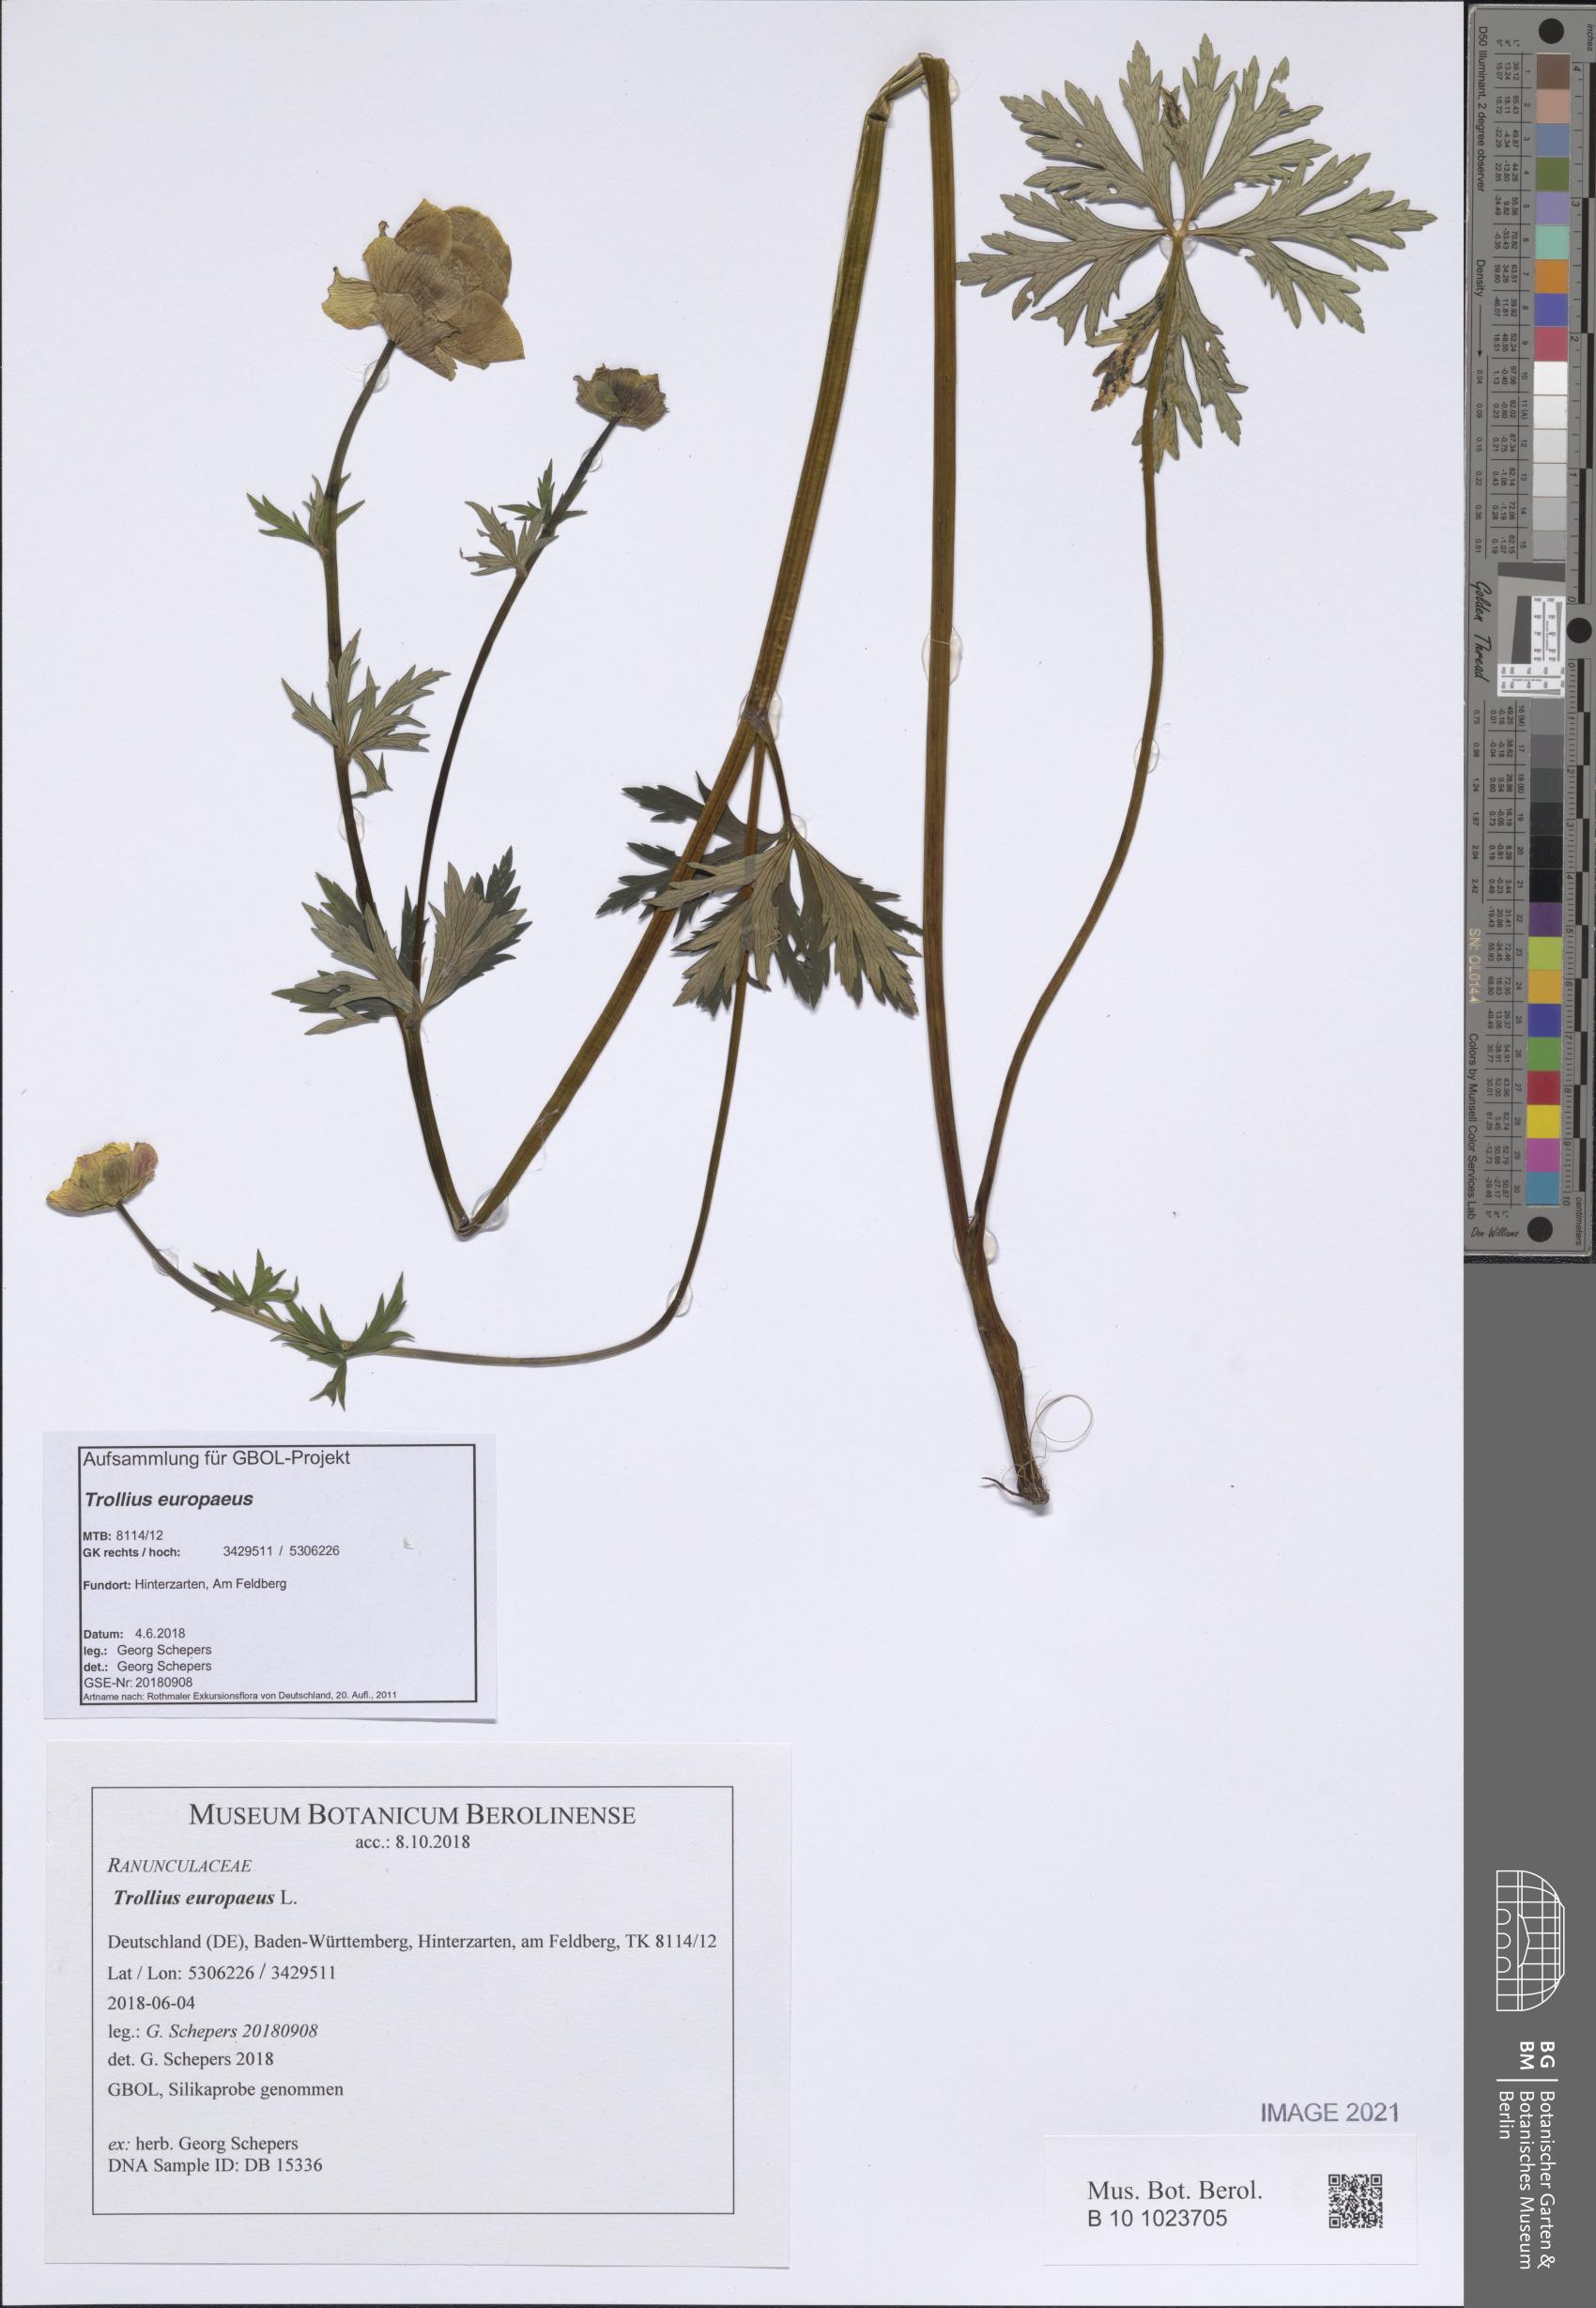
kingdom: Plantae
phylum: Tracheophyta
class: Magnoliopsida
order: Ranunculales
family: Ranunculaceae
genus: Trollius
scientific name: Trollius europaeus
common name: European globeflower
